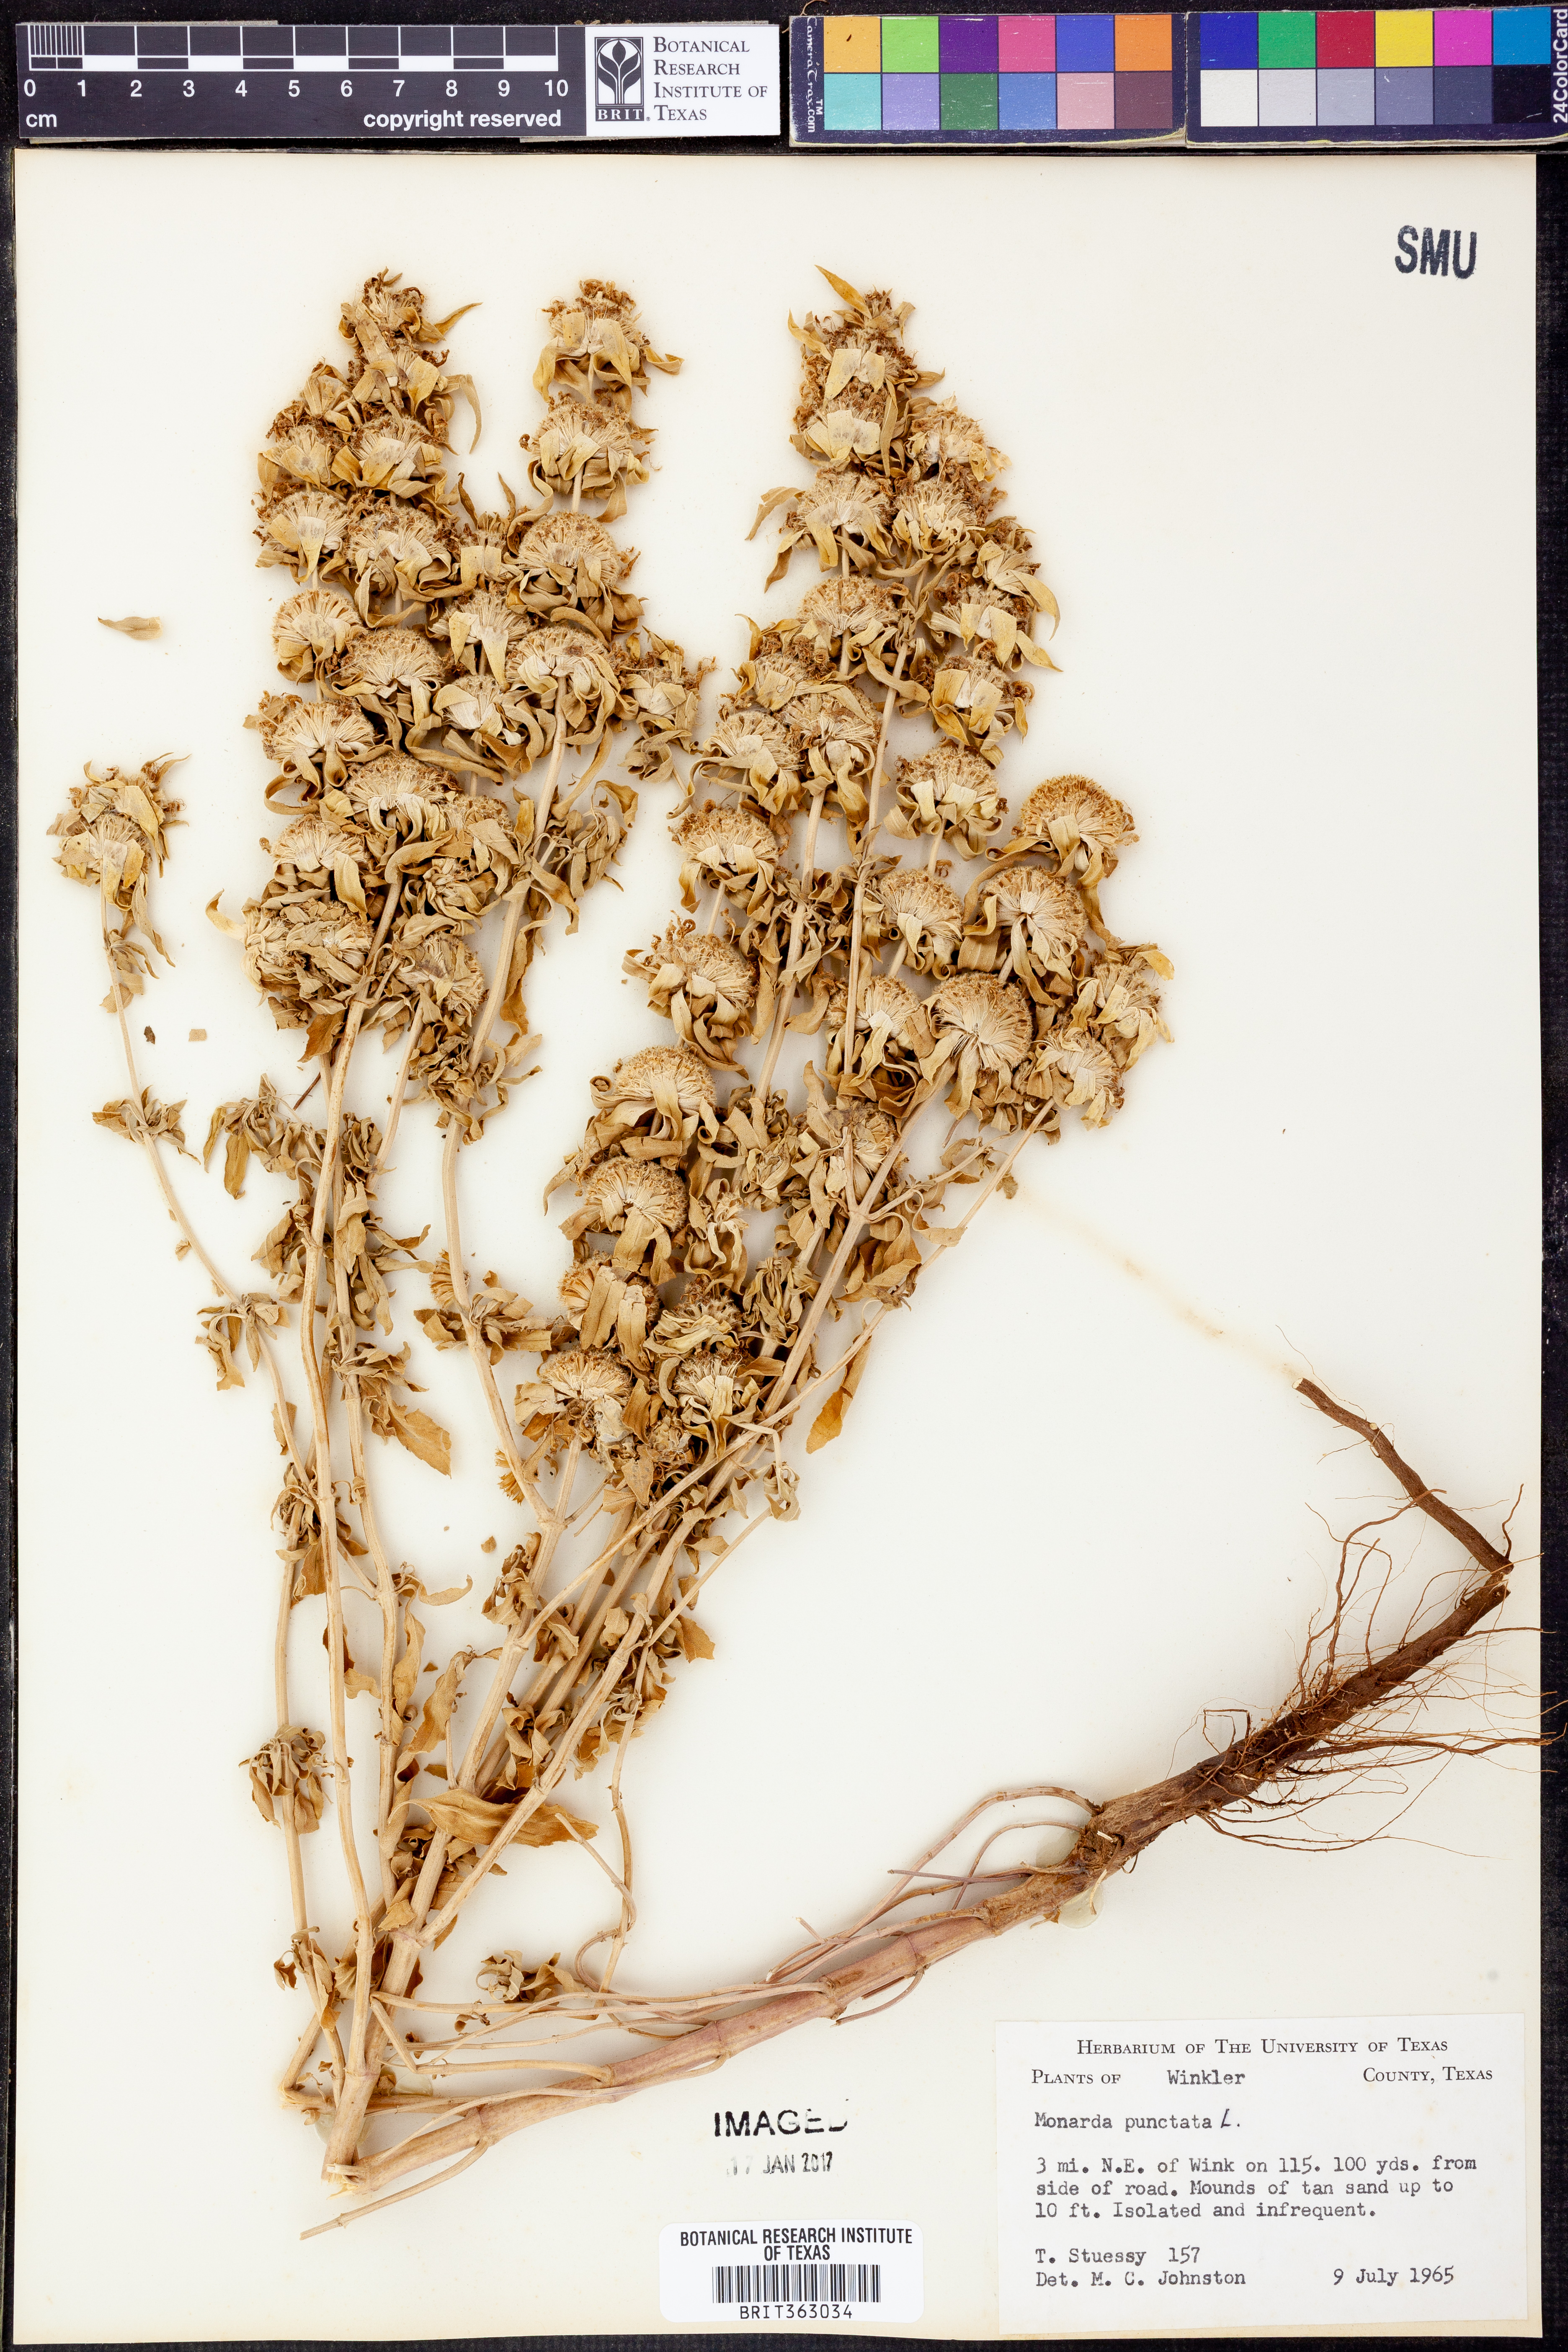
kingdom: Plantae
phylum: Tracheophyta
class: Magnoliopsida
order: Lamiales
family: Lamiaceae
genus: Monarda
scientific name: Monarda punctata
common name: Dotted monarda
